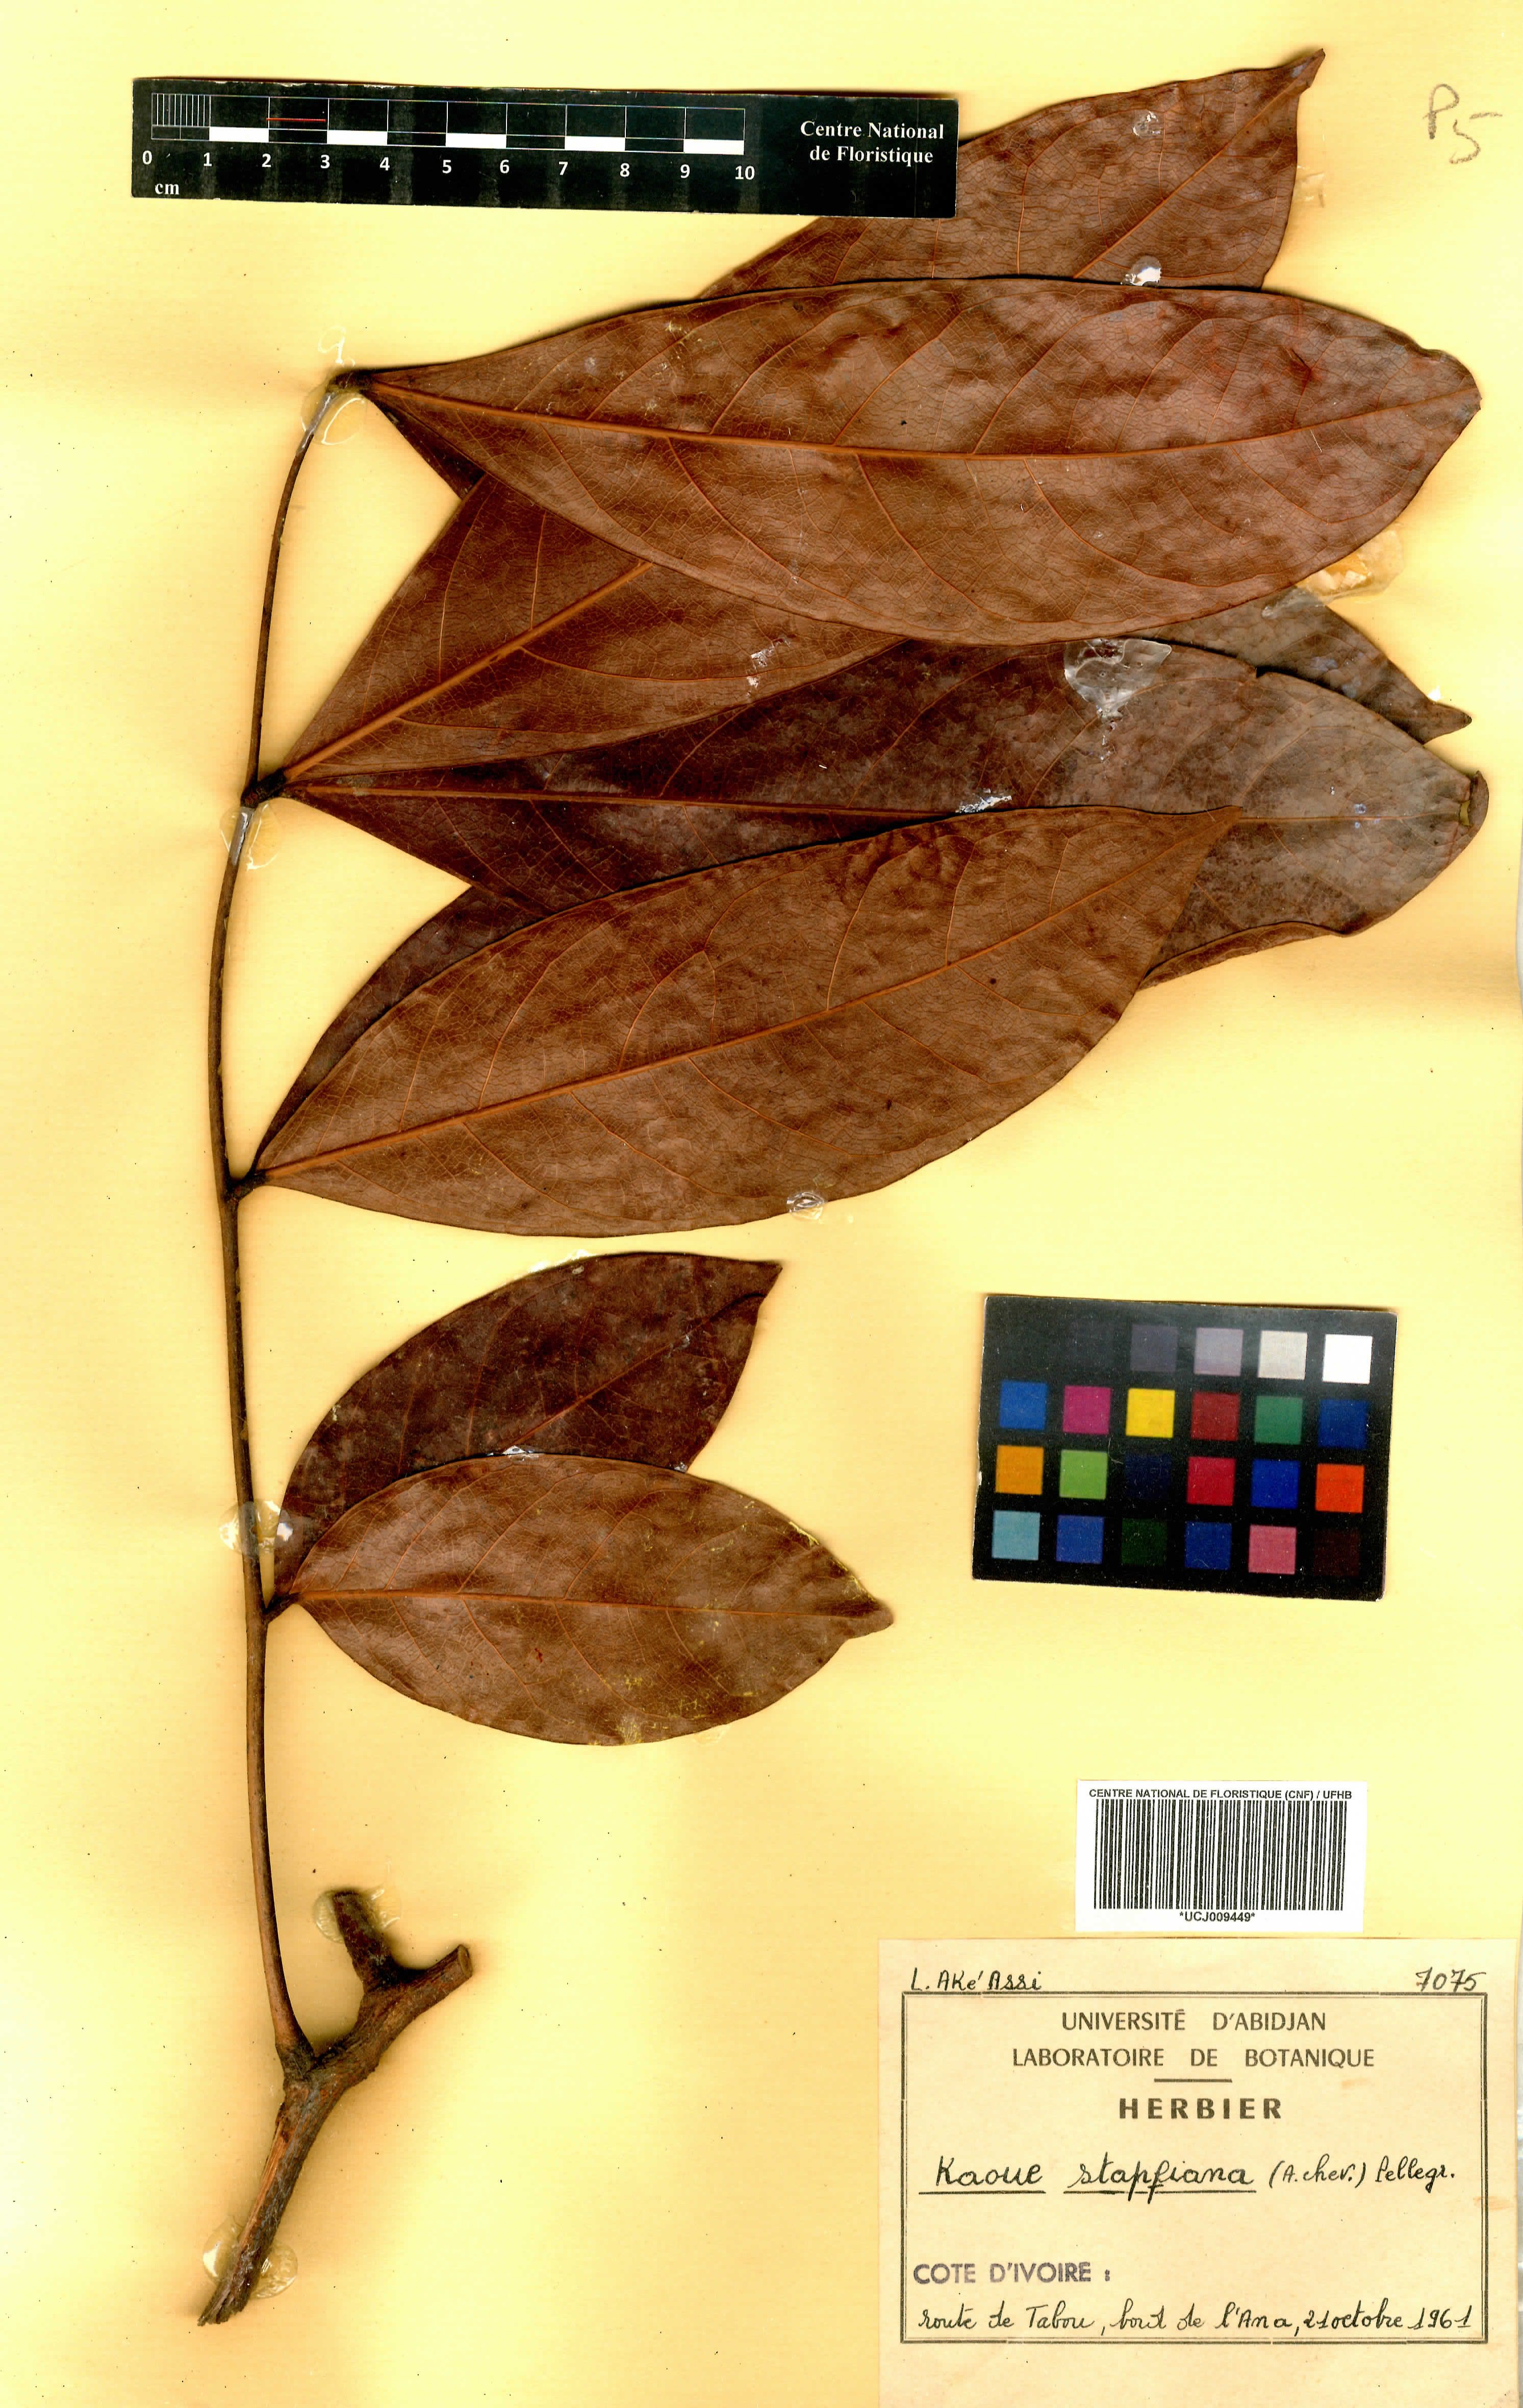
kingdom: Plantae
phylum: Tracheophyta
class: Magnoliopsida
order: Fabales
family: Fabaceae
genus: Stachyothyrsus
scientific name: Stachyothyrsus stapfiana
